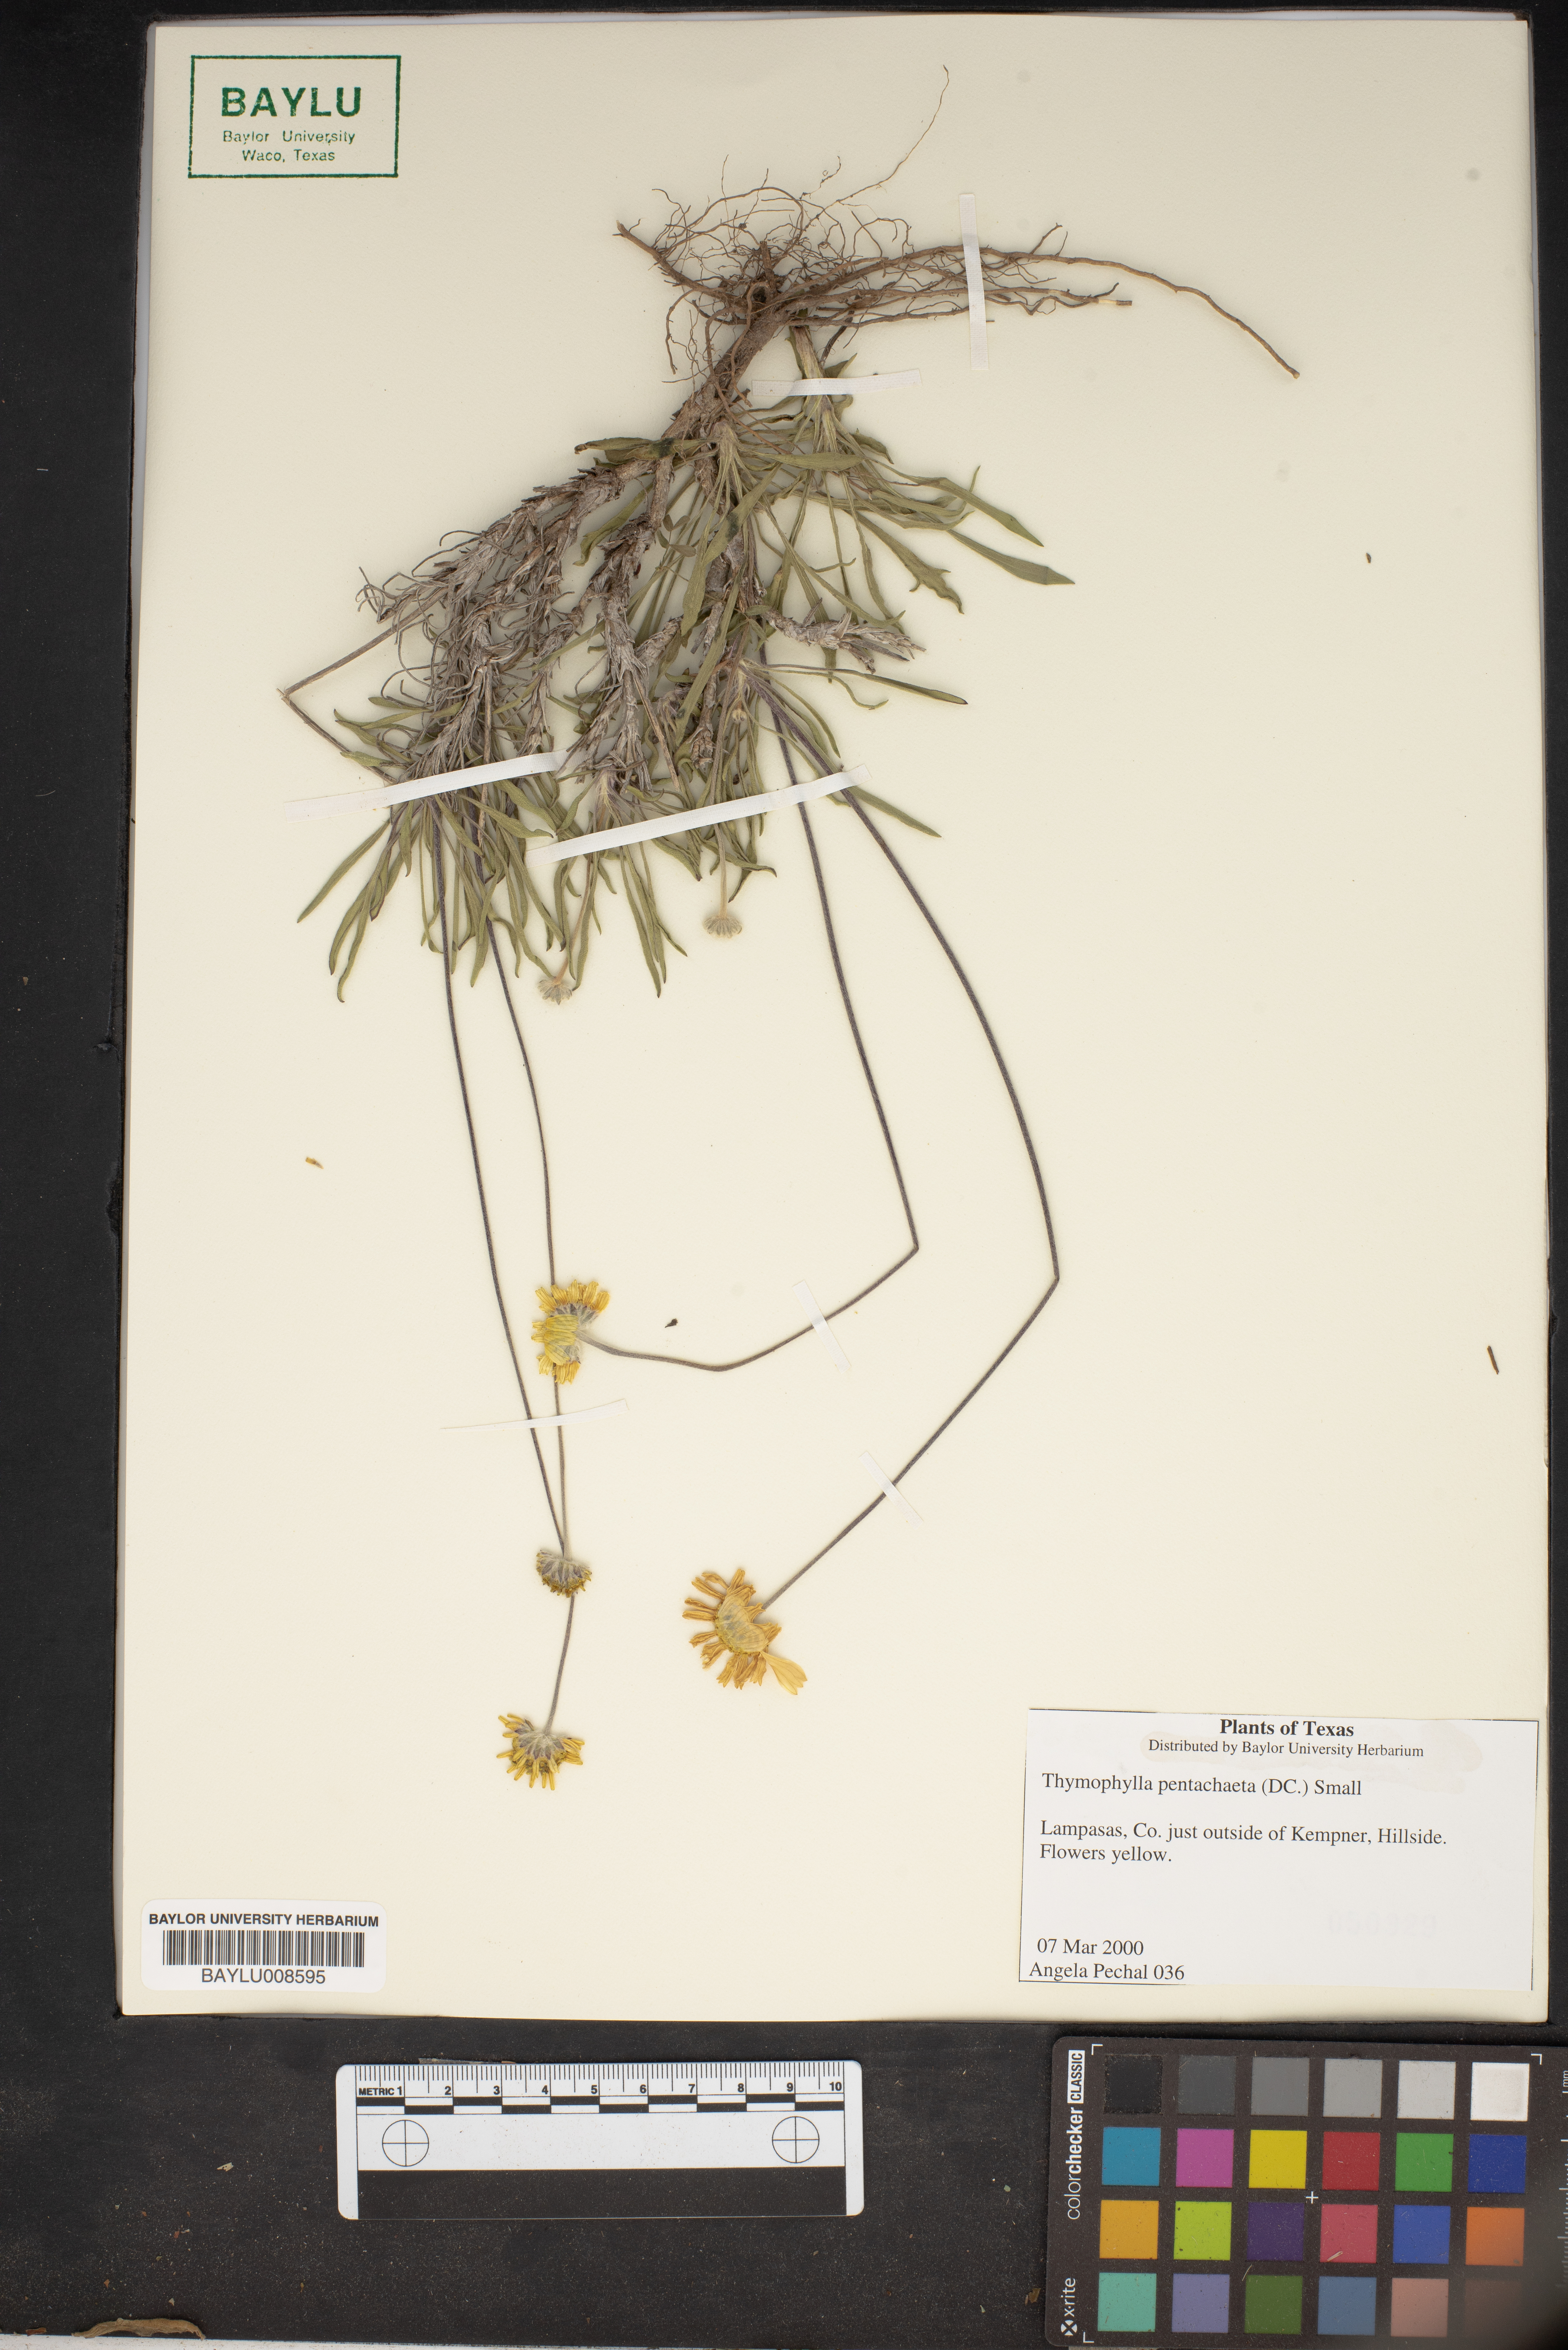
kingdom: Plantae
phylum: Tracheophyta
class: Magnoliopsida
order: Asterales
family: Asteraceae
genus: Thymophylla
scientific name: Thymophylla pentachaeta
